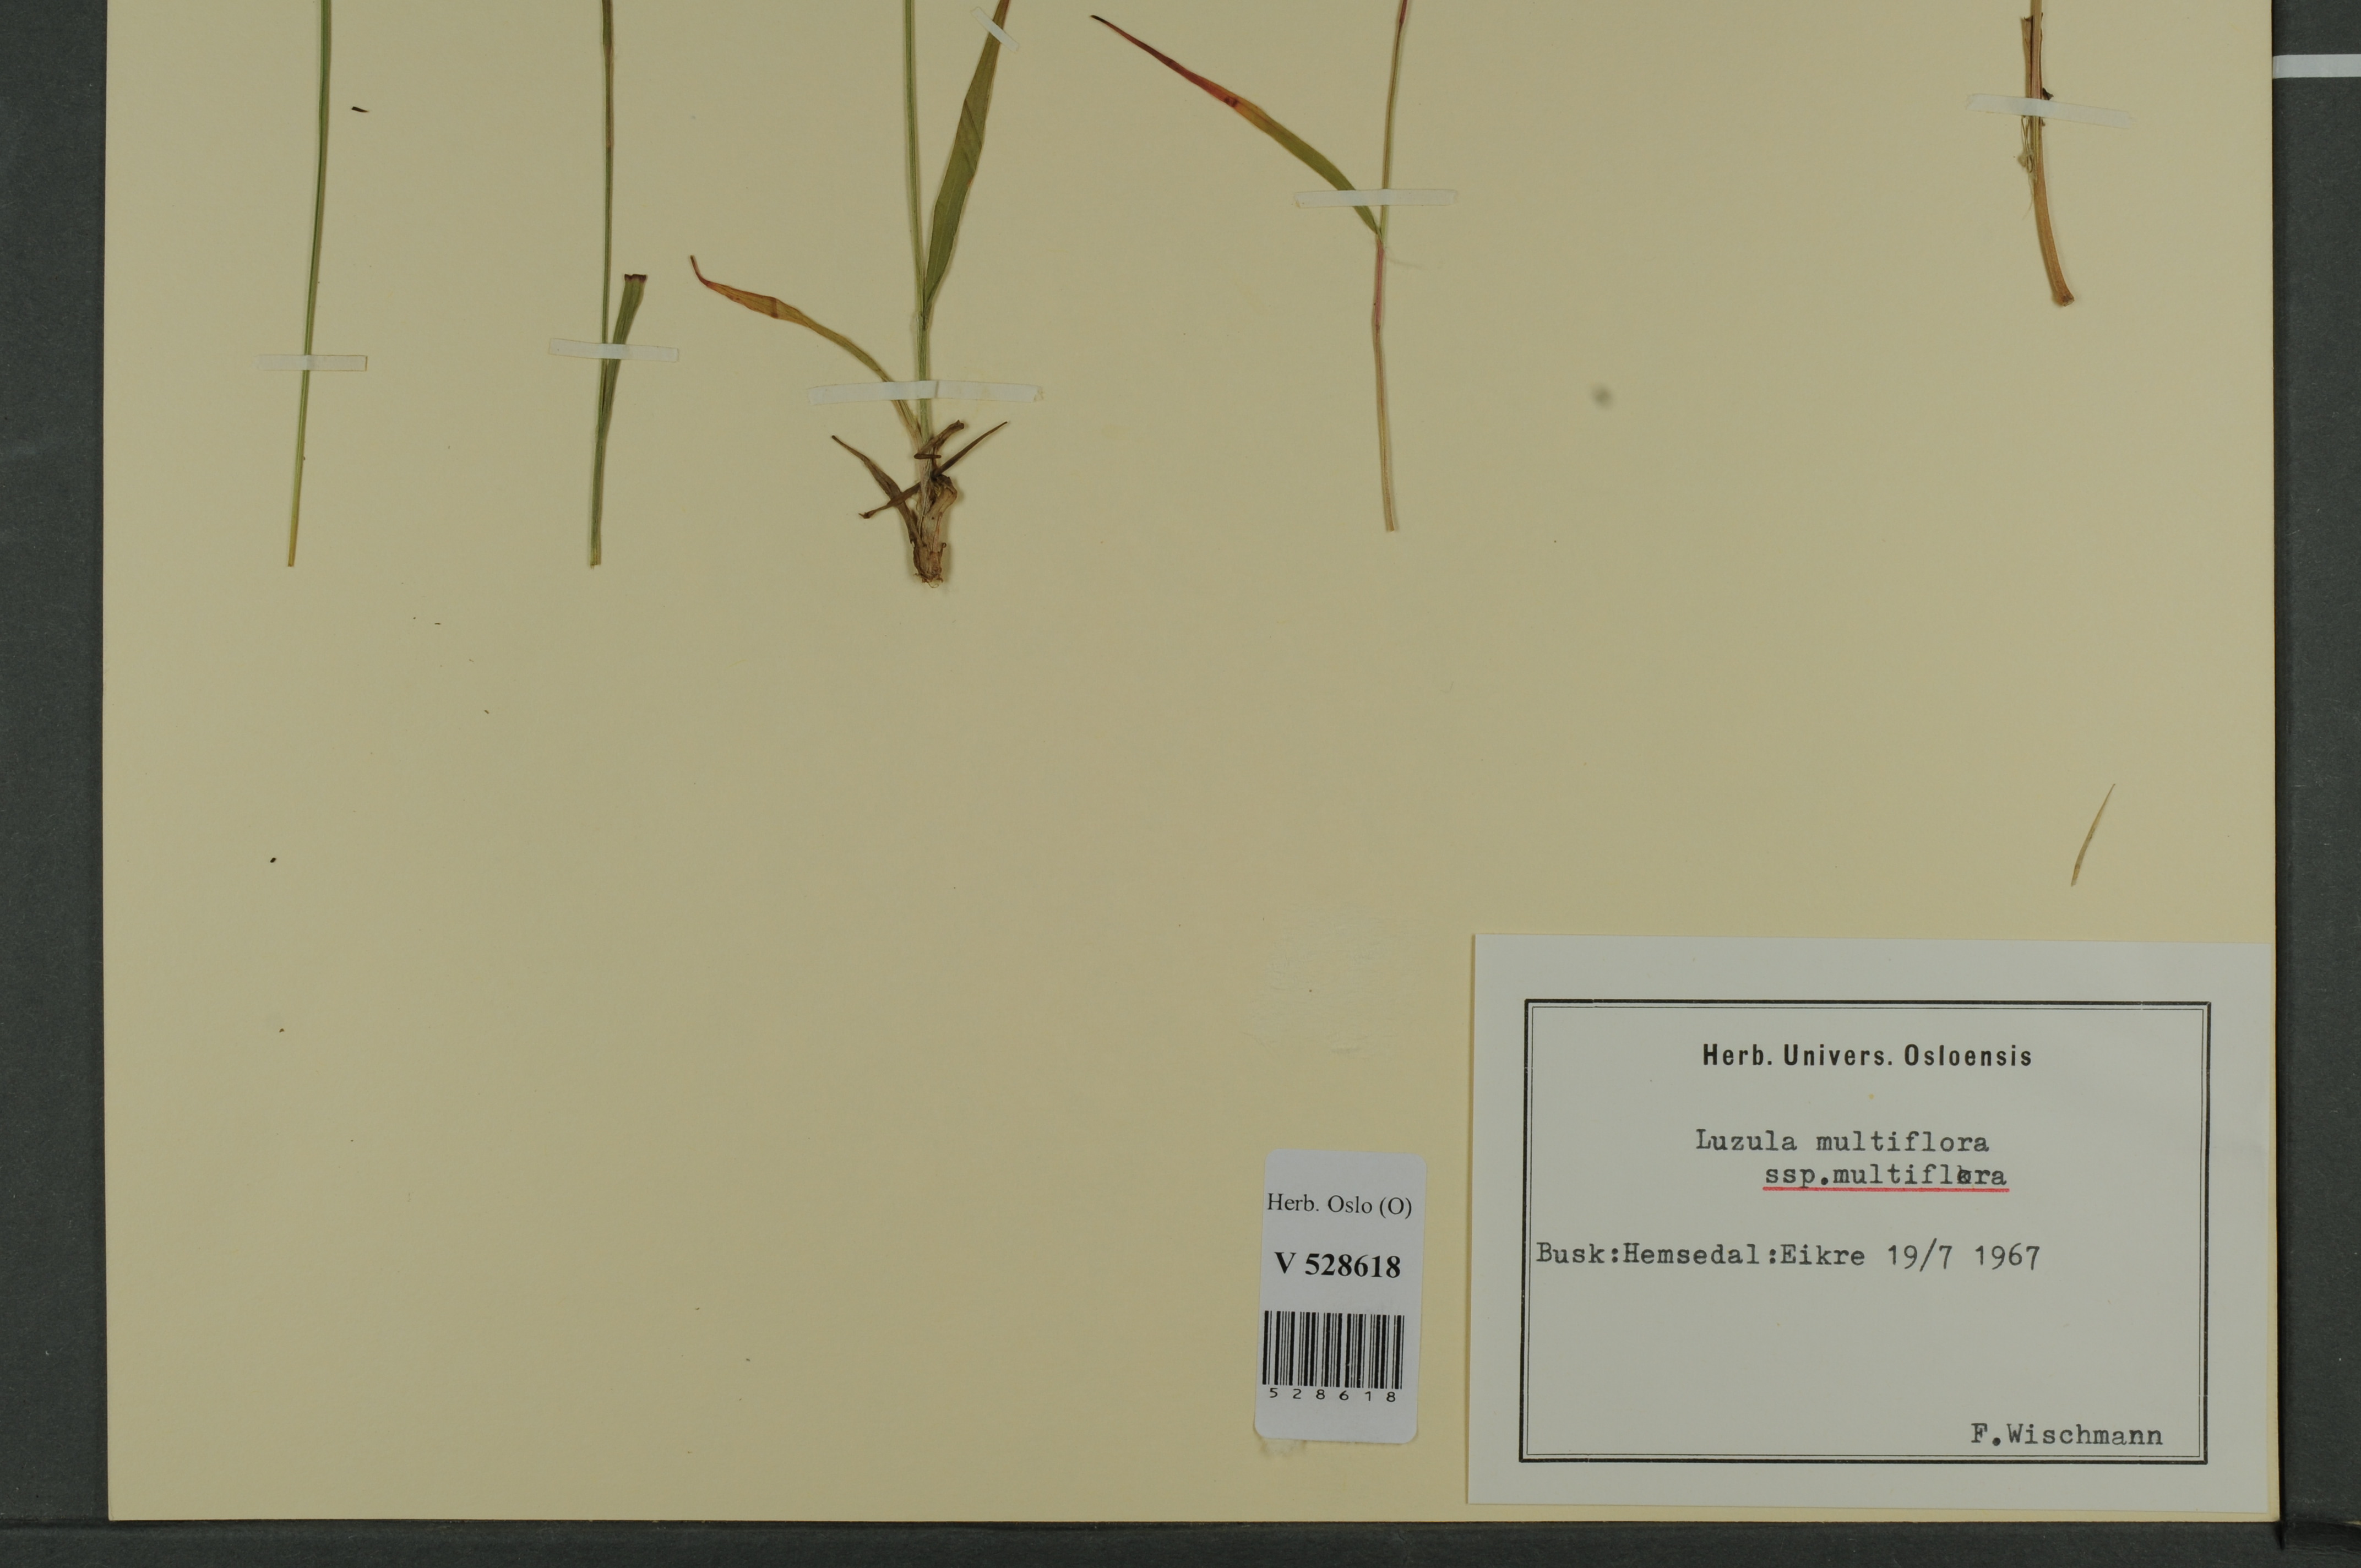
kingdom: Plantae
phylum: Tracheophyta
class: Liliopsida
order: Poales
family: Juncaceae
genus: Luzula
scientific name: Luzula multiflora
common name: Heath wood-rush
